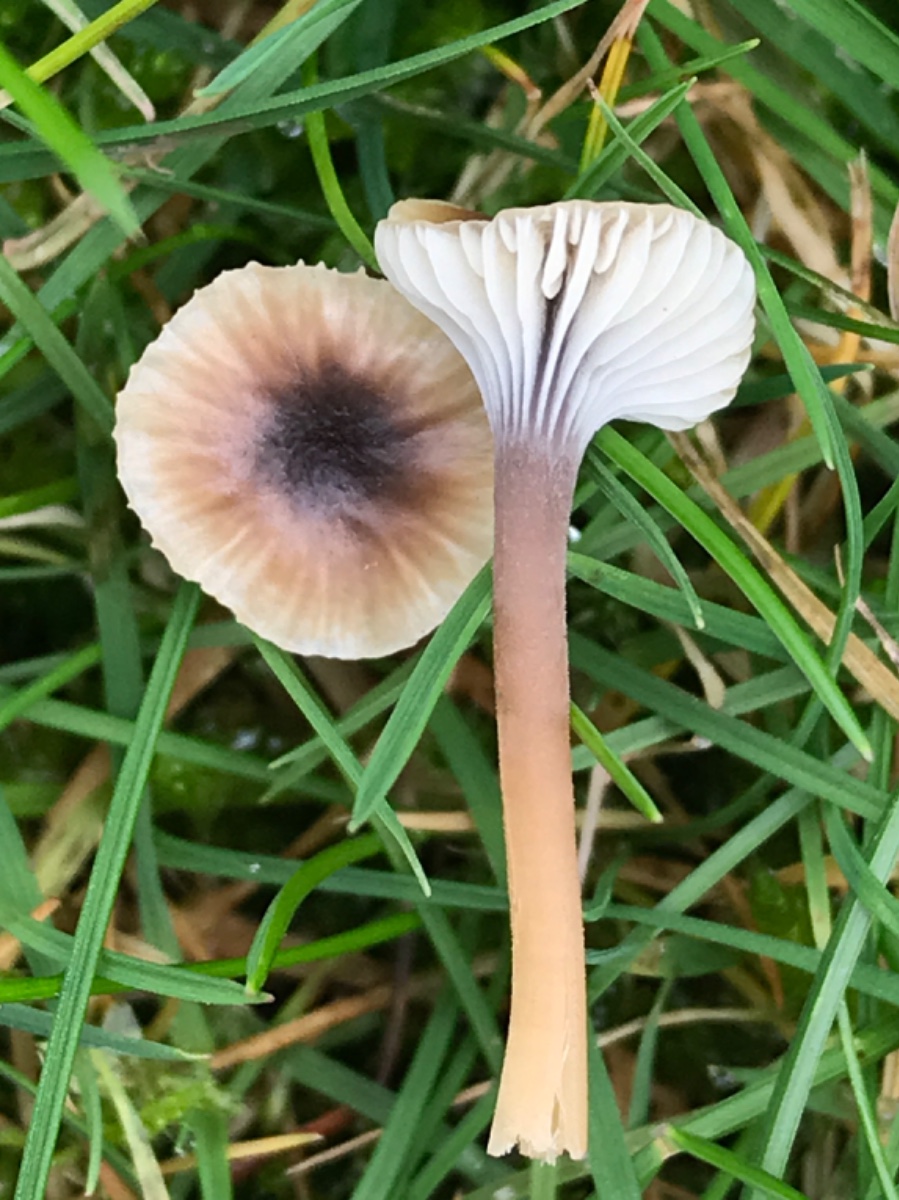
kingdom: Fungi
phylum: Basidiomycota
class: Agaricomycetes
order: Hymenochaetales
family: Rickenellaceae
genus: Rickenella
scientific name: Rickenella swartzii
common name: finstokket mosnavlehat
